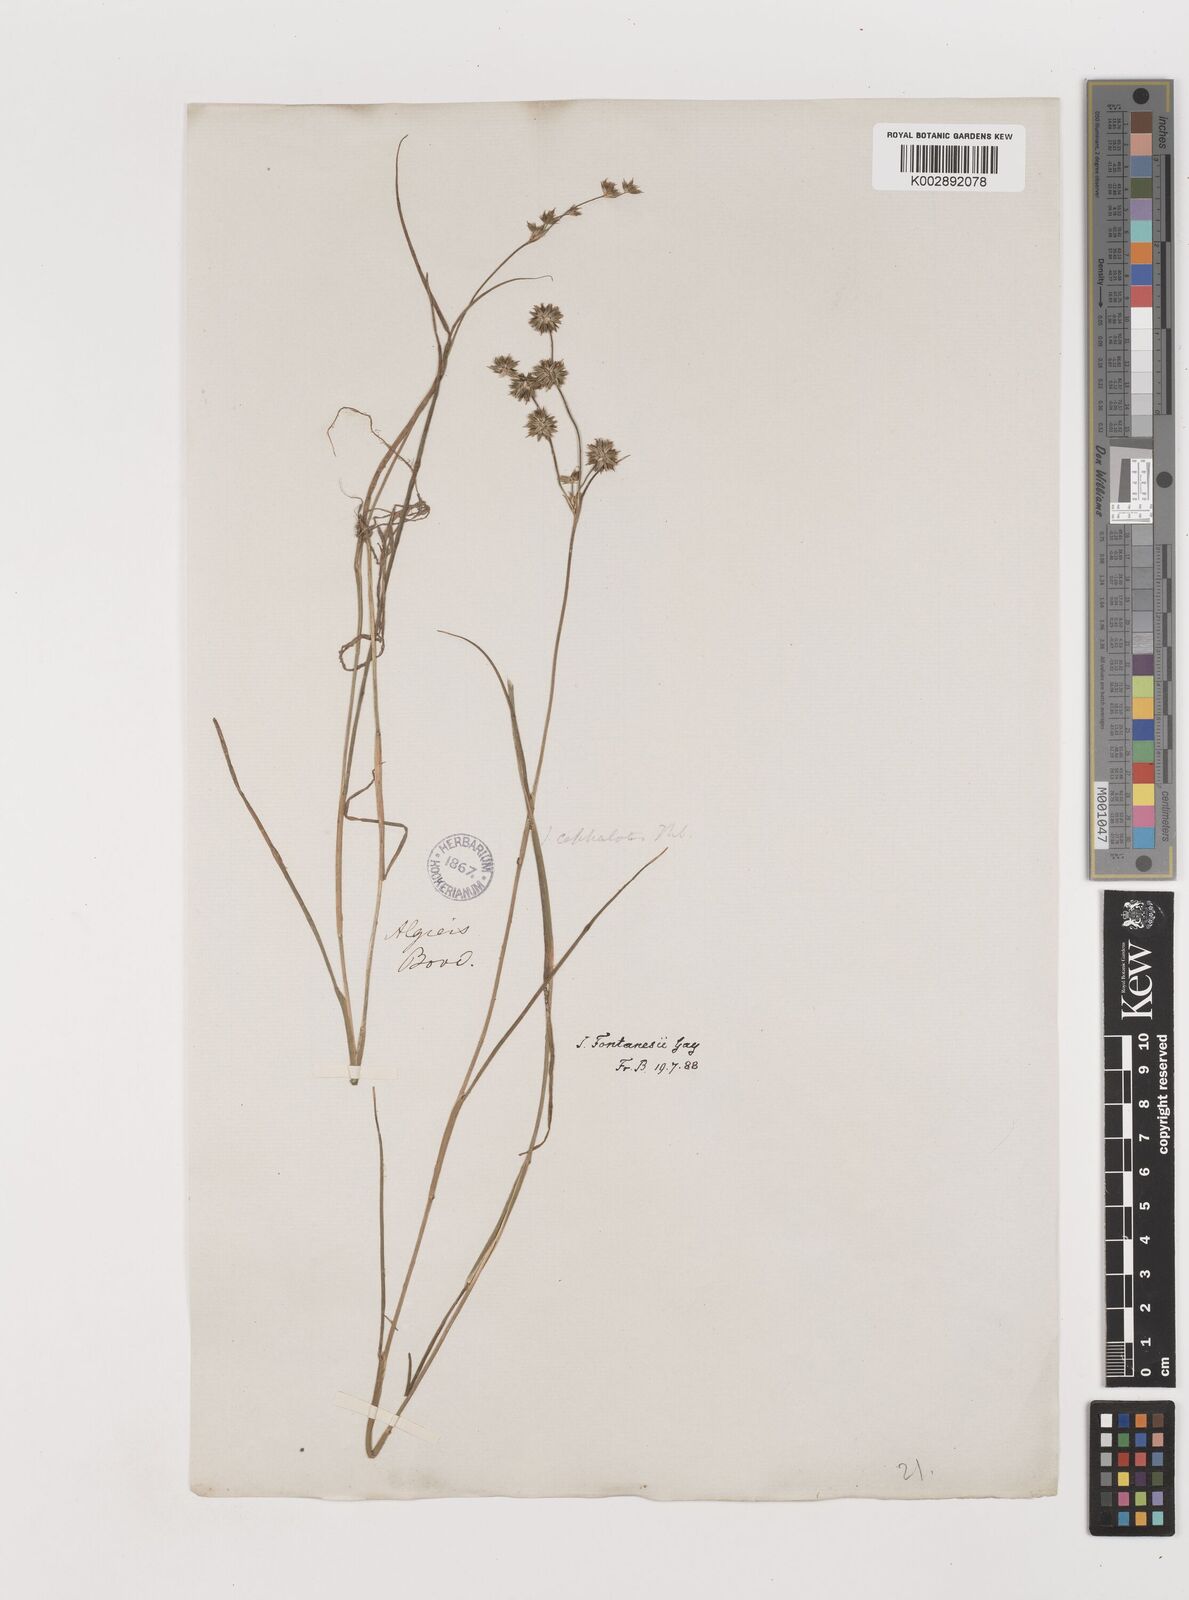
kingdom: Plantae
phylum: Tracheophyta
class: Liliopsida
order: Poales
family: Juncaceae
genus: Juncus
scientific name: Juncus fontanesii
